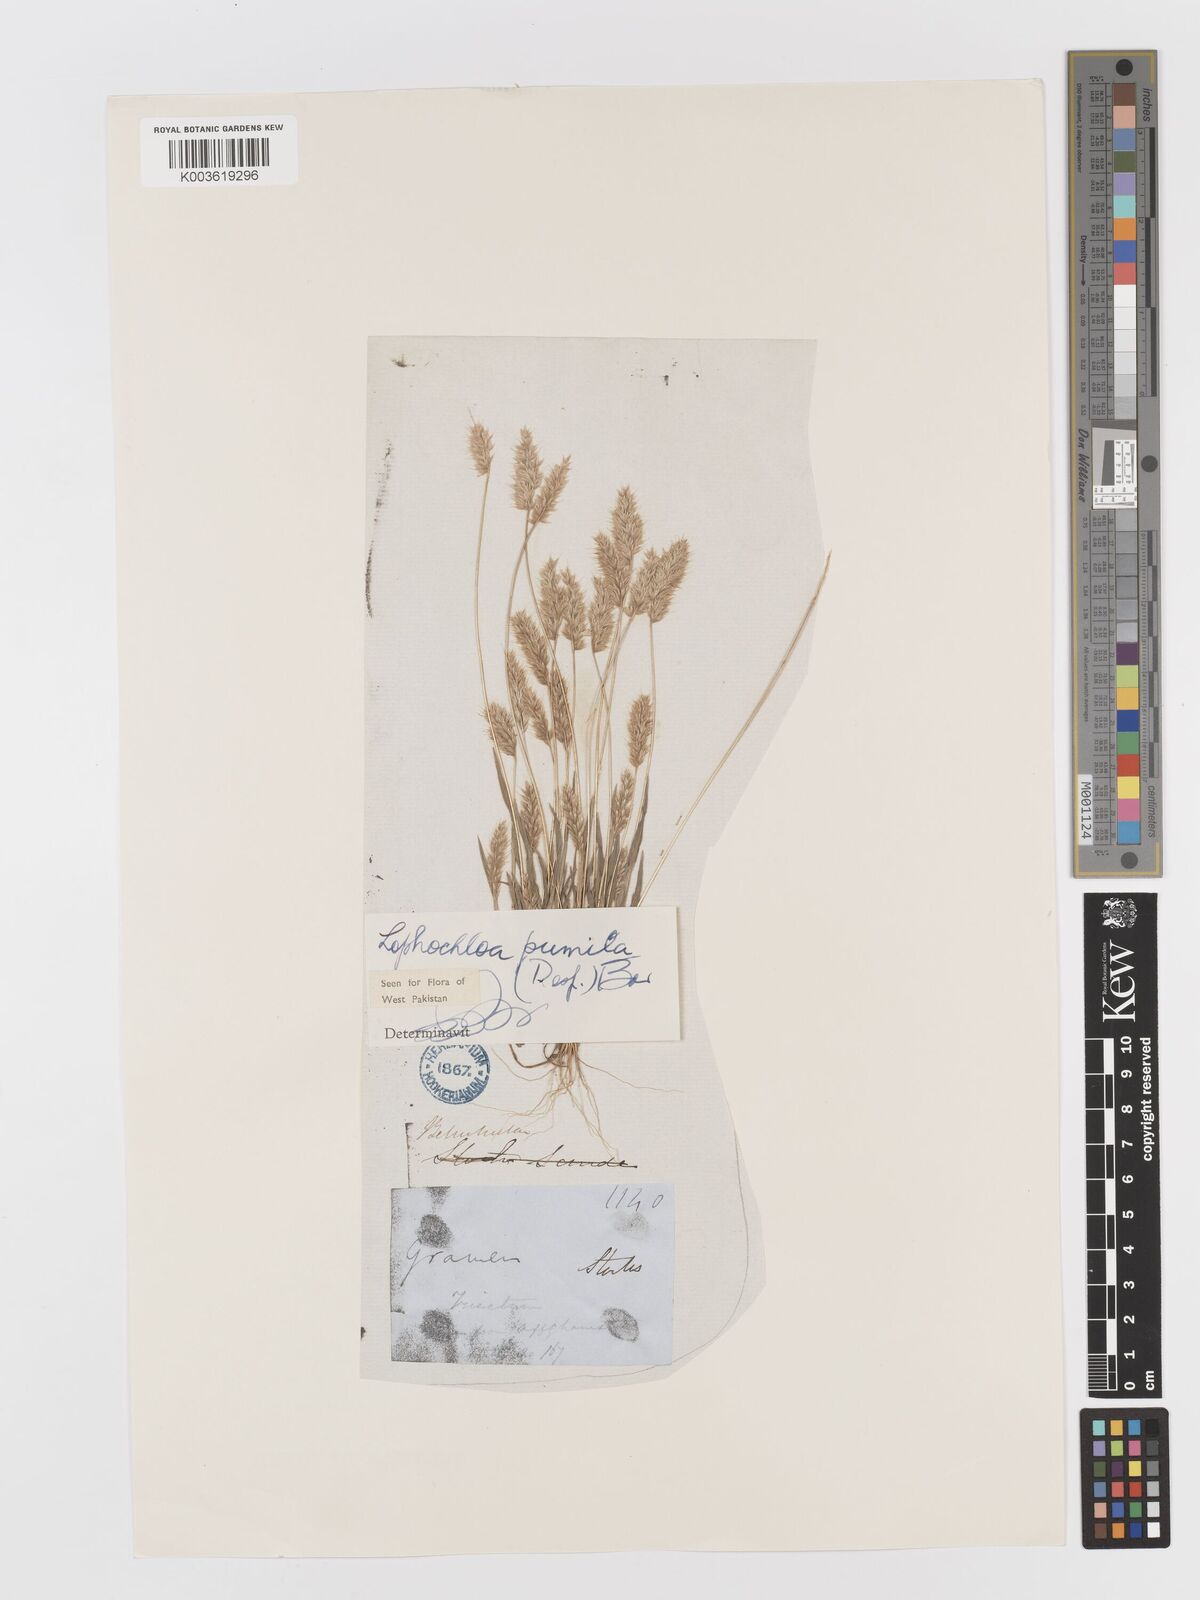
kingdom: Plantae
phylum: Tracheophyta
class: Liliopsida
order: Poales
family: Poaceae
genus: Rostraria
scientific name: Rostraria pumila
